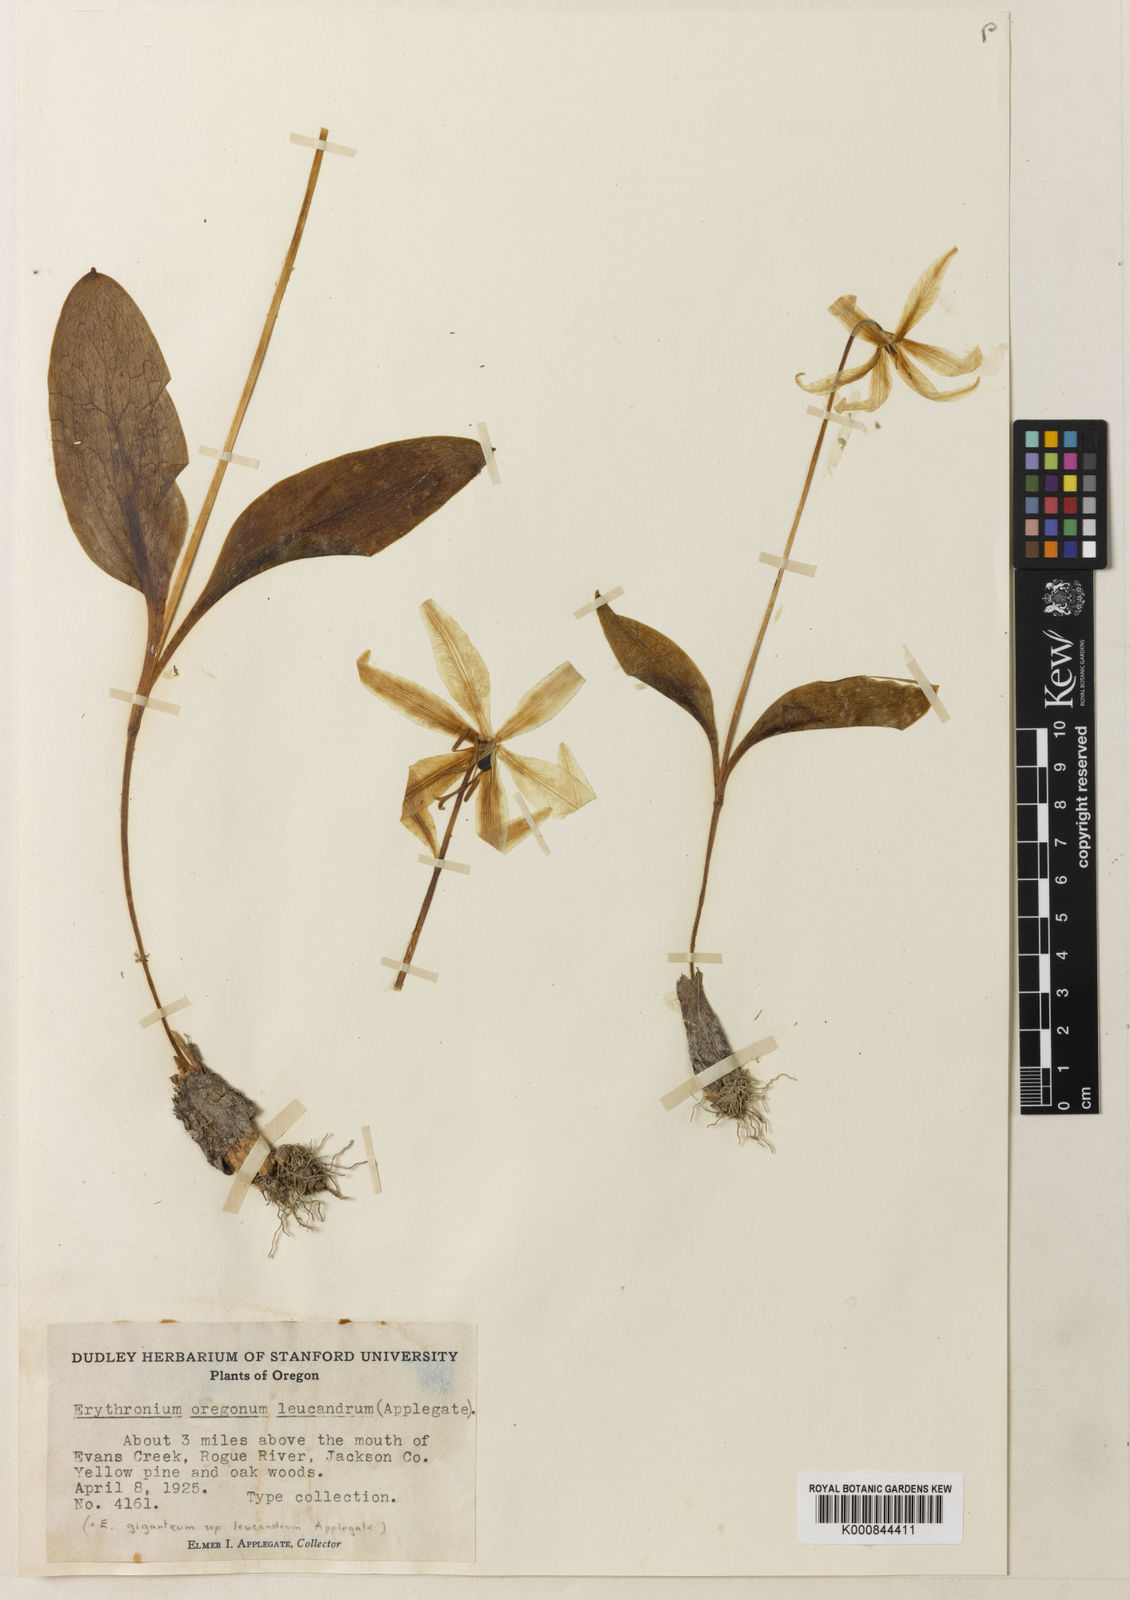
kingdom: Plantae
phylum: Tracheophyta
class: Liliopsida
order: Liliales
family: Liliaceae
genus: Erythronium
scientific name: Erythronium oregonum
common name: Giant adder's-tongue
